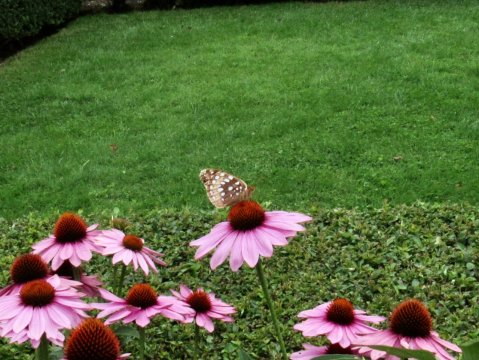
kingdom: Animalia
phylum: Arthropoda
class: Insecta
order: Lepidoptera
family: Nymphalidae
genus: Speyeria
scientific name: Speyeria cybele
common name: Great Spangled Fritillary
